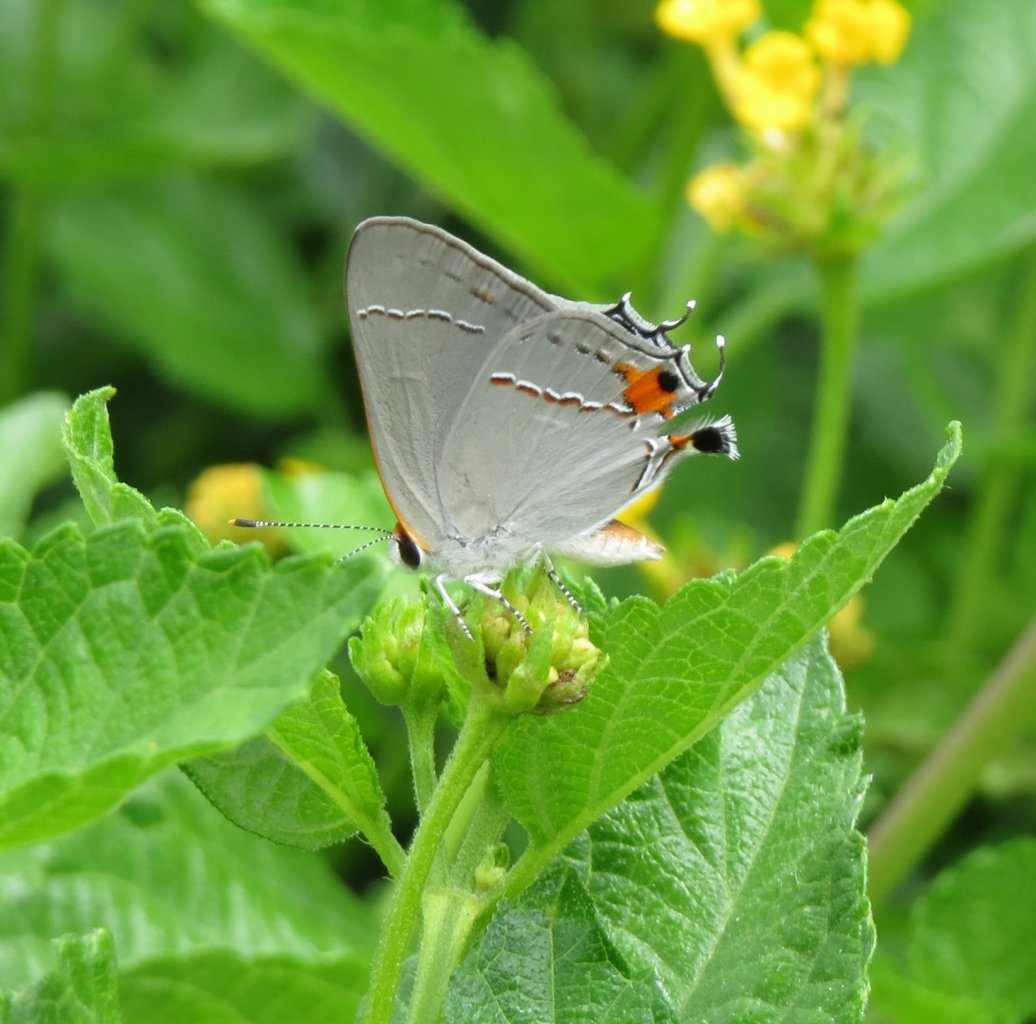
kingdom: Animalia
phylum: Arthropoda
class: Insecta
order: Lepidoptera
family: Lycaenidae
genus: Strymon
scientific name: Strymon melinus
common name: Gray Hairstreak
